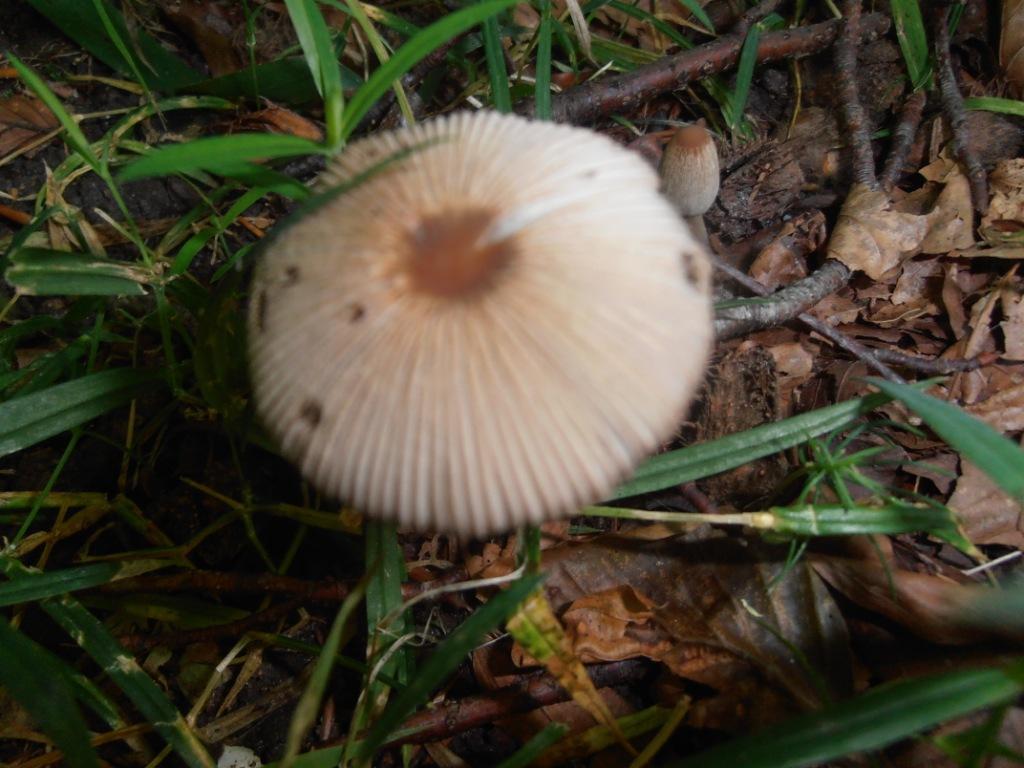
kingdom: Fungi
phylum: Basidiomycota
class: Agaricomycetes
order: Agaricales
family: Psathyrellaceae
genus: Parasola
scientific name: Parasola kuehneri
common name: skygge-hjulhat
